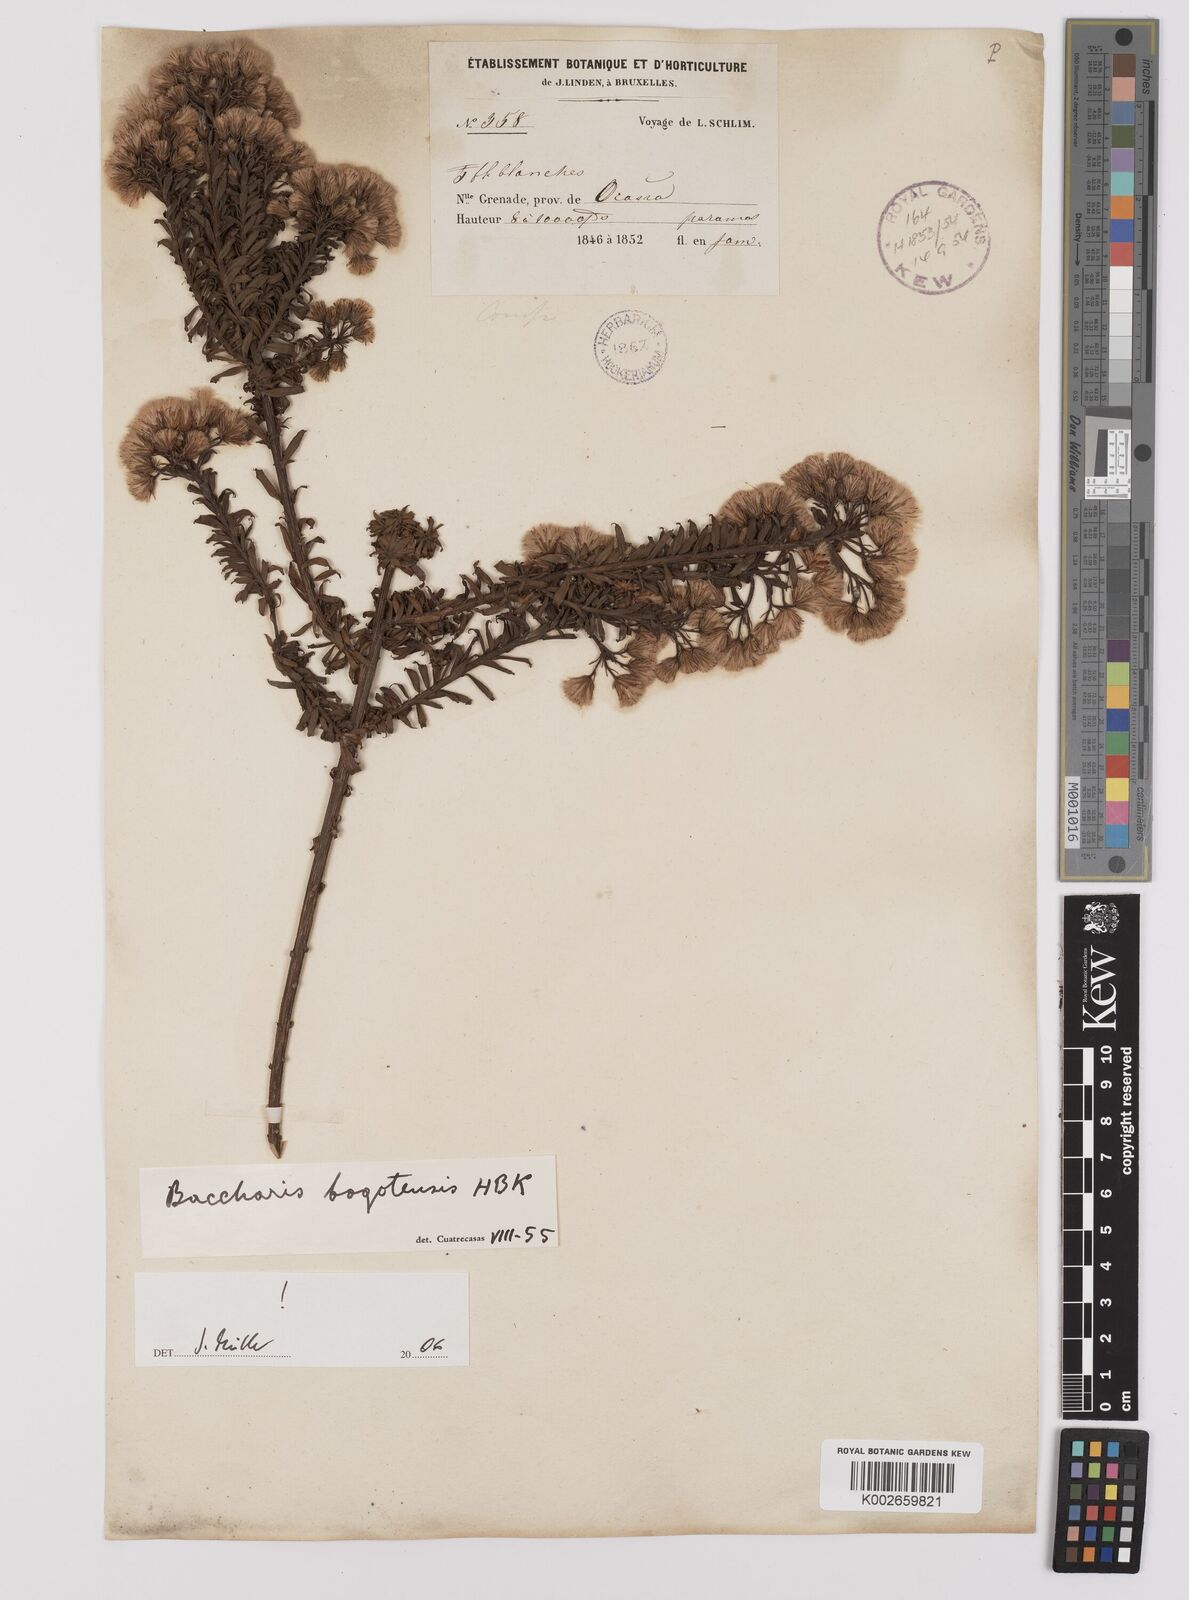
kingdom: Plantae
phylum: Tracheophyta
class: Magnoliopsida
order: Asterales
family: Asteraceae
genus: Baccharis
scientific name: Baccharis bogotensis
